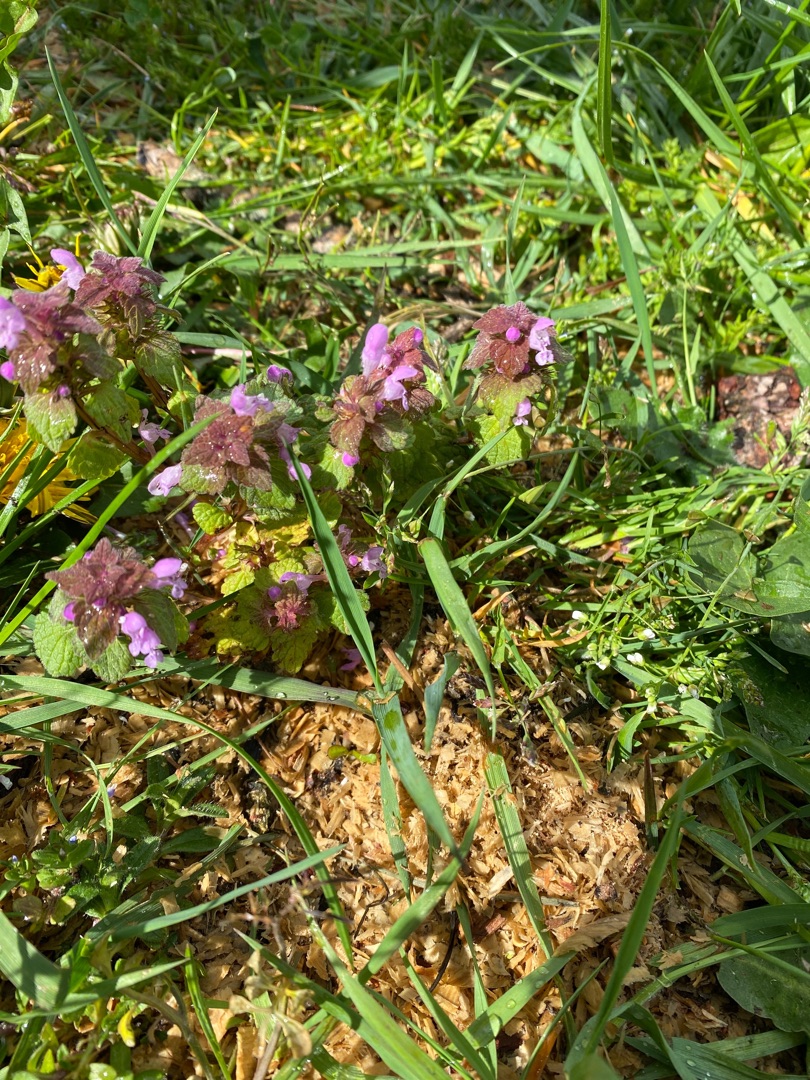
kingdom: Plantae
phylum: Tracheophyta
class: Magnoliopsida
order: Lamiales
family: Lamiaceae
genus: Lamium
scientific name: Lamium purpureum
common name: Rød tvetand
